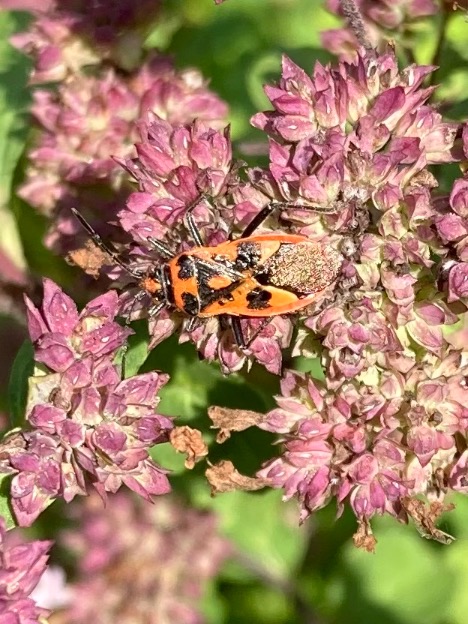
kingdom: Animalia
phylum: Arthropoda
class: Insecta
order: Hemiptera
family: Rhopalidae
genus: Corizus
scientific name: Corizus hyoscyami
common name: Rød kanttæge
